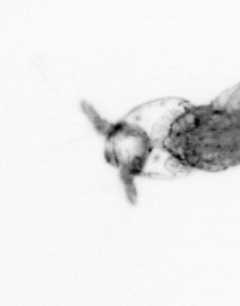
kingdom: Animalia
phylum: Arthropoda
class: Copepoda
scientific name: Copepoda
